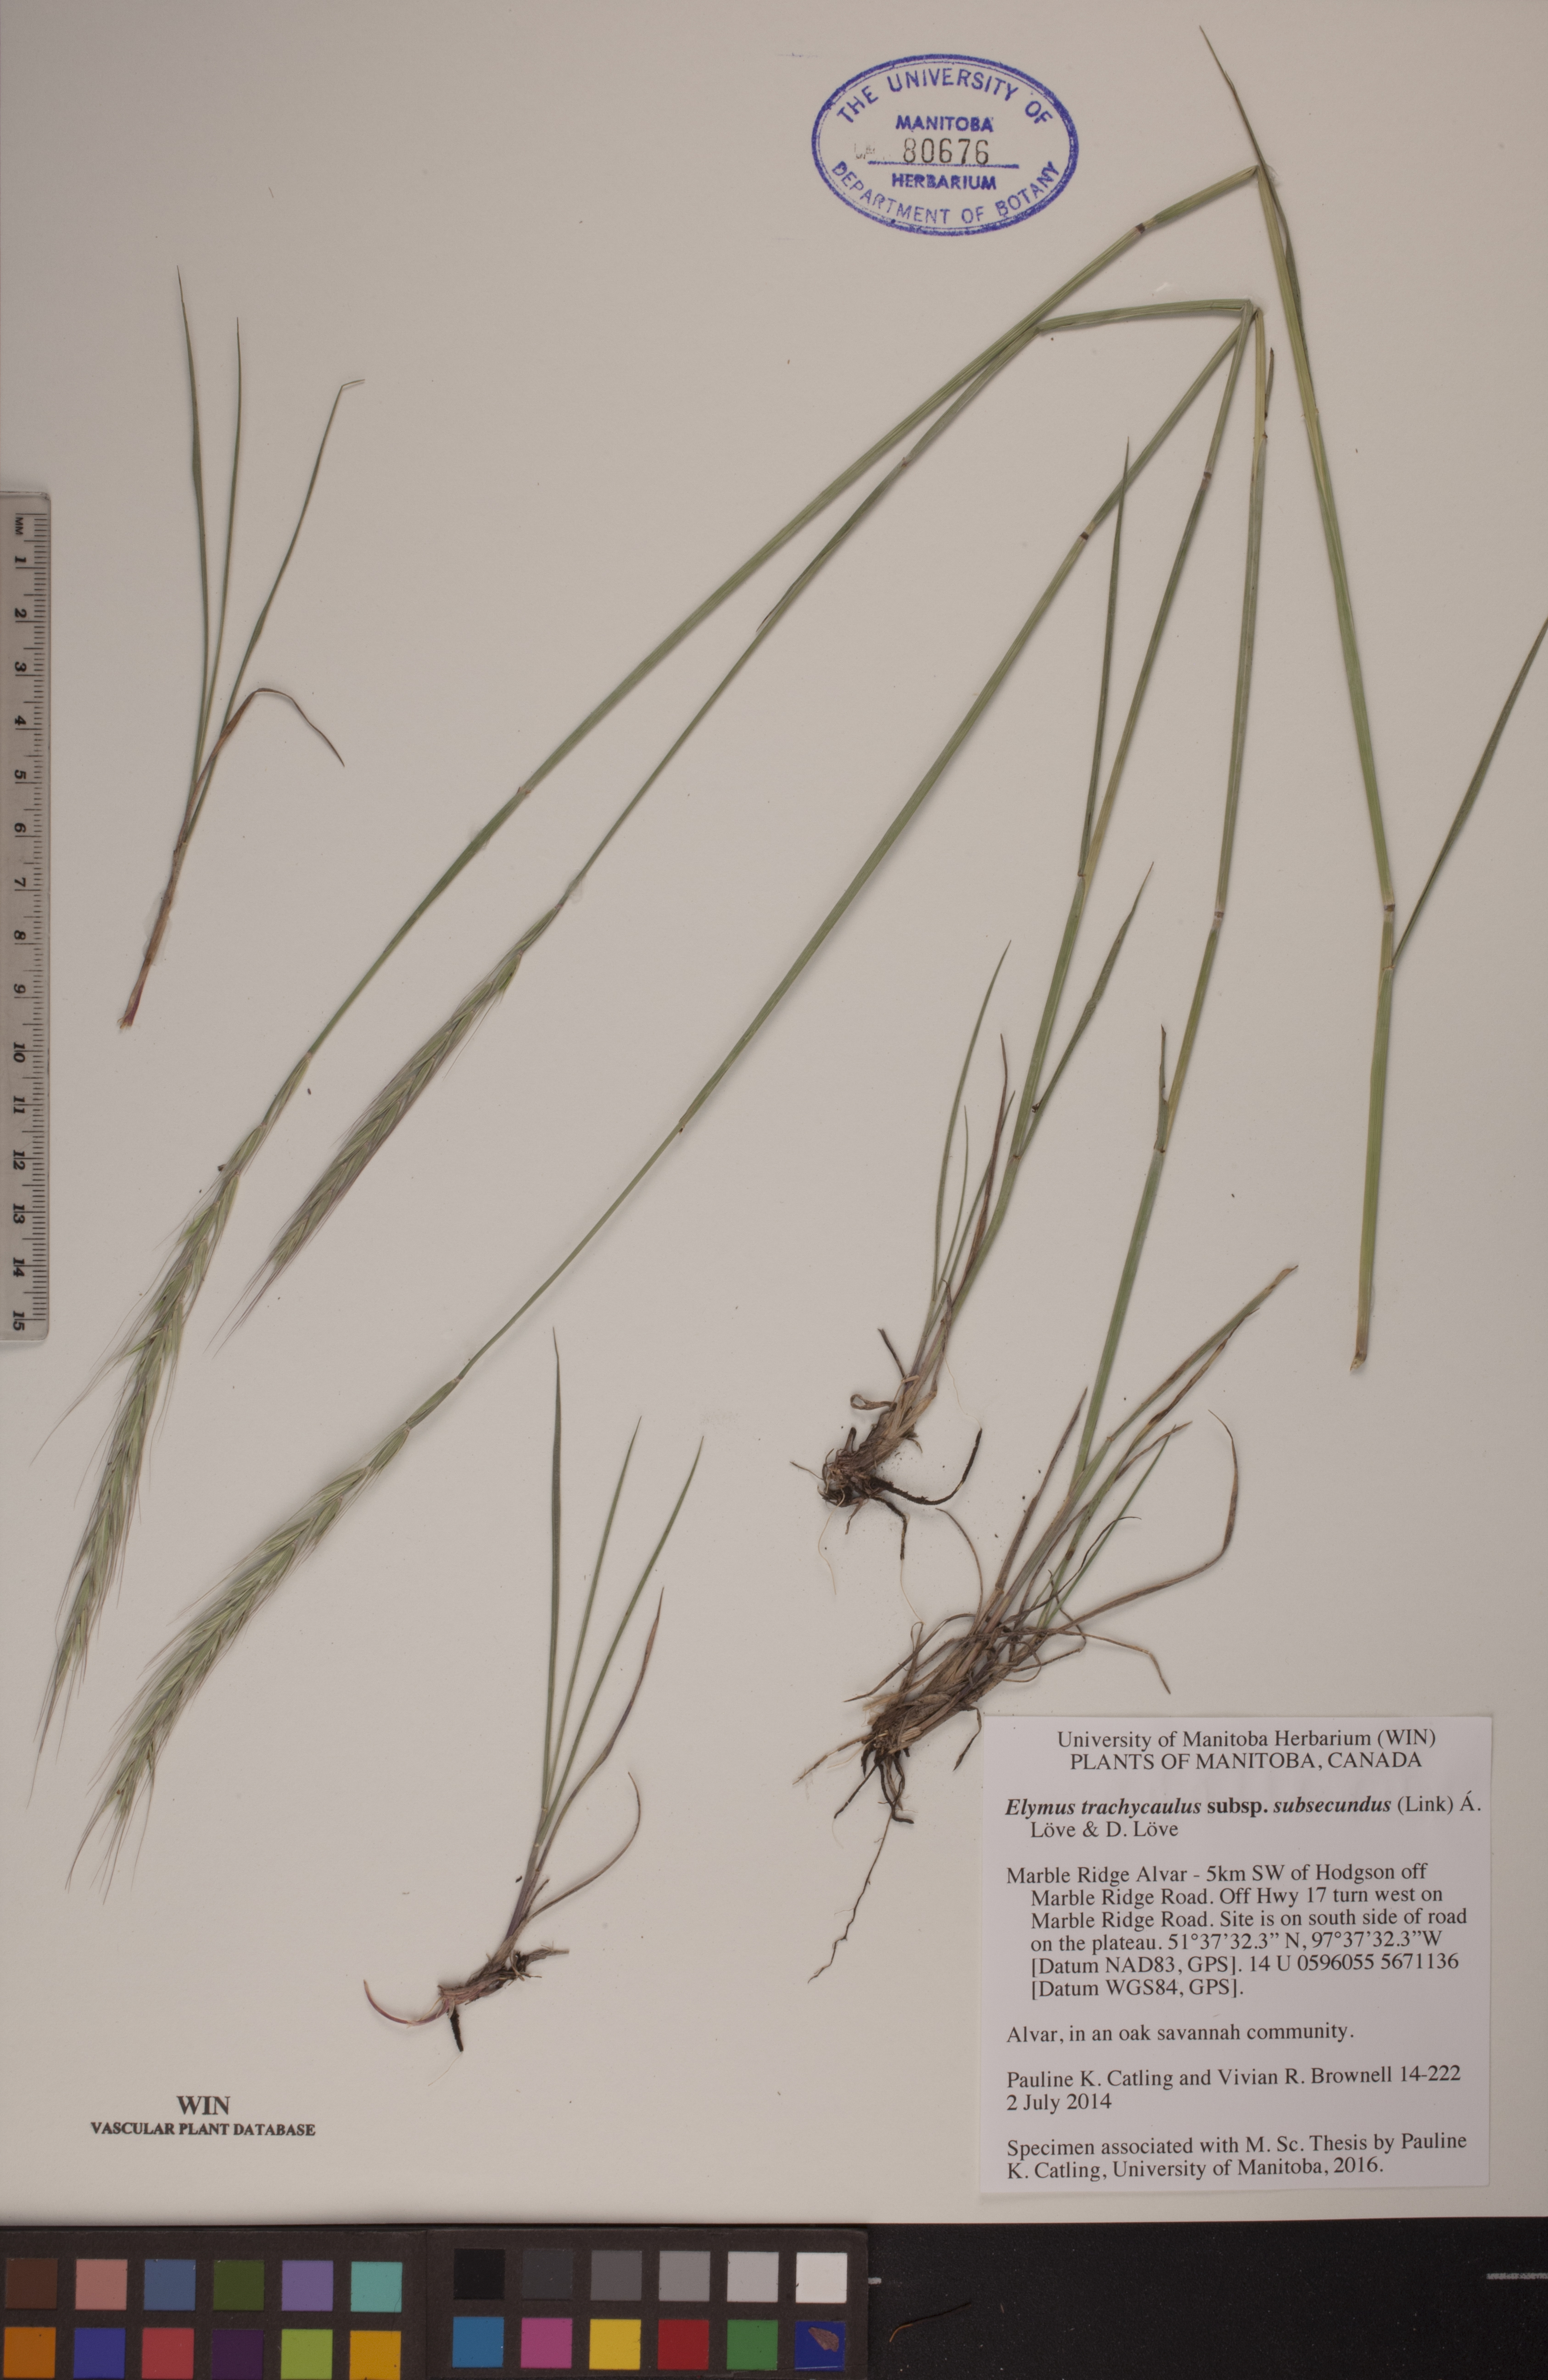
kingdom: Plantae
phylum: Tracheophyta
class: Liliopsida
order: Poales
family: Poaceae
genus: Elymus
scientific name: Elymus violaceus
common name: Arctic wheatgrass
